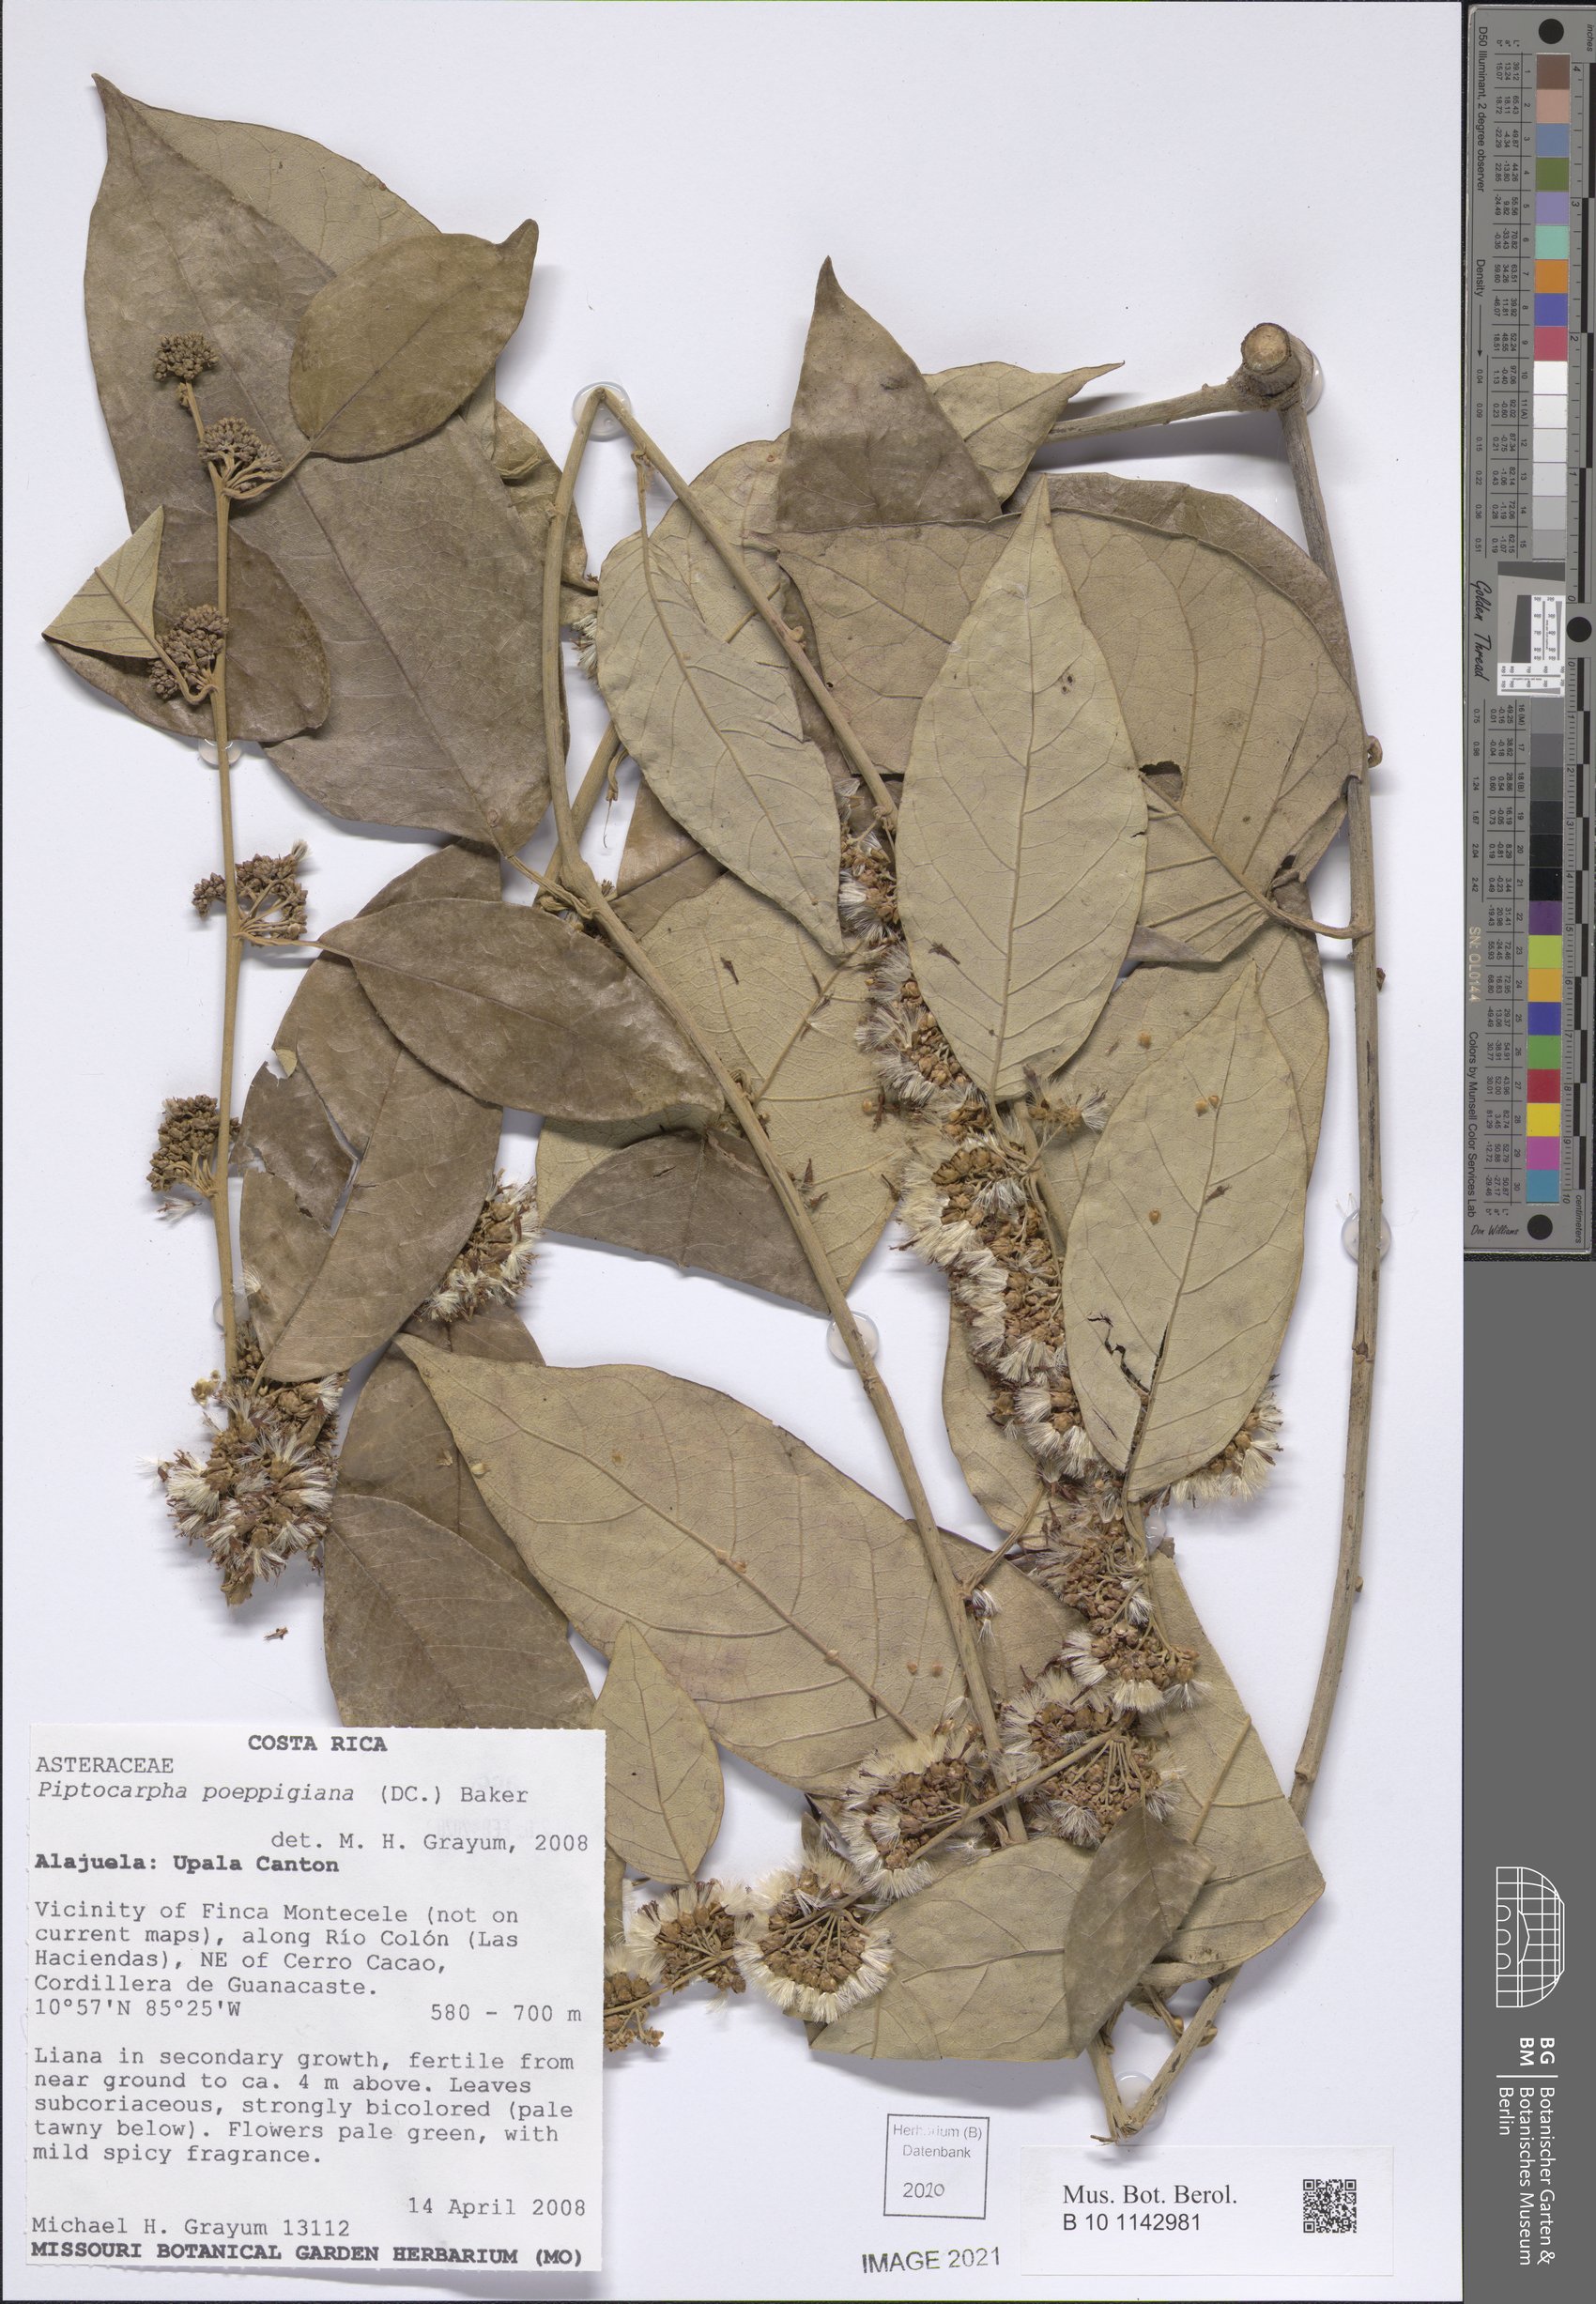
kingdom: Plantae
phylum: Tracheophyta
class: Magnoliopsida
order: Asterales
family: Asteraceae
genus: Piptocarpha
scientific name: Piptocarpha poeppigiana
